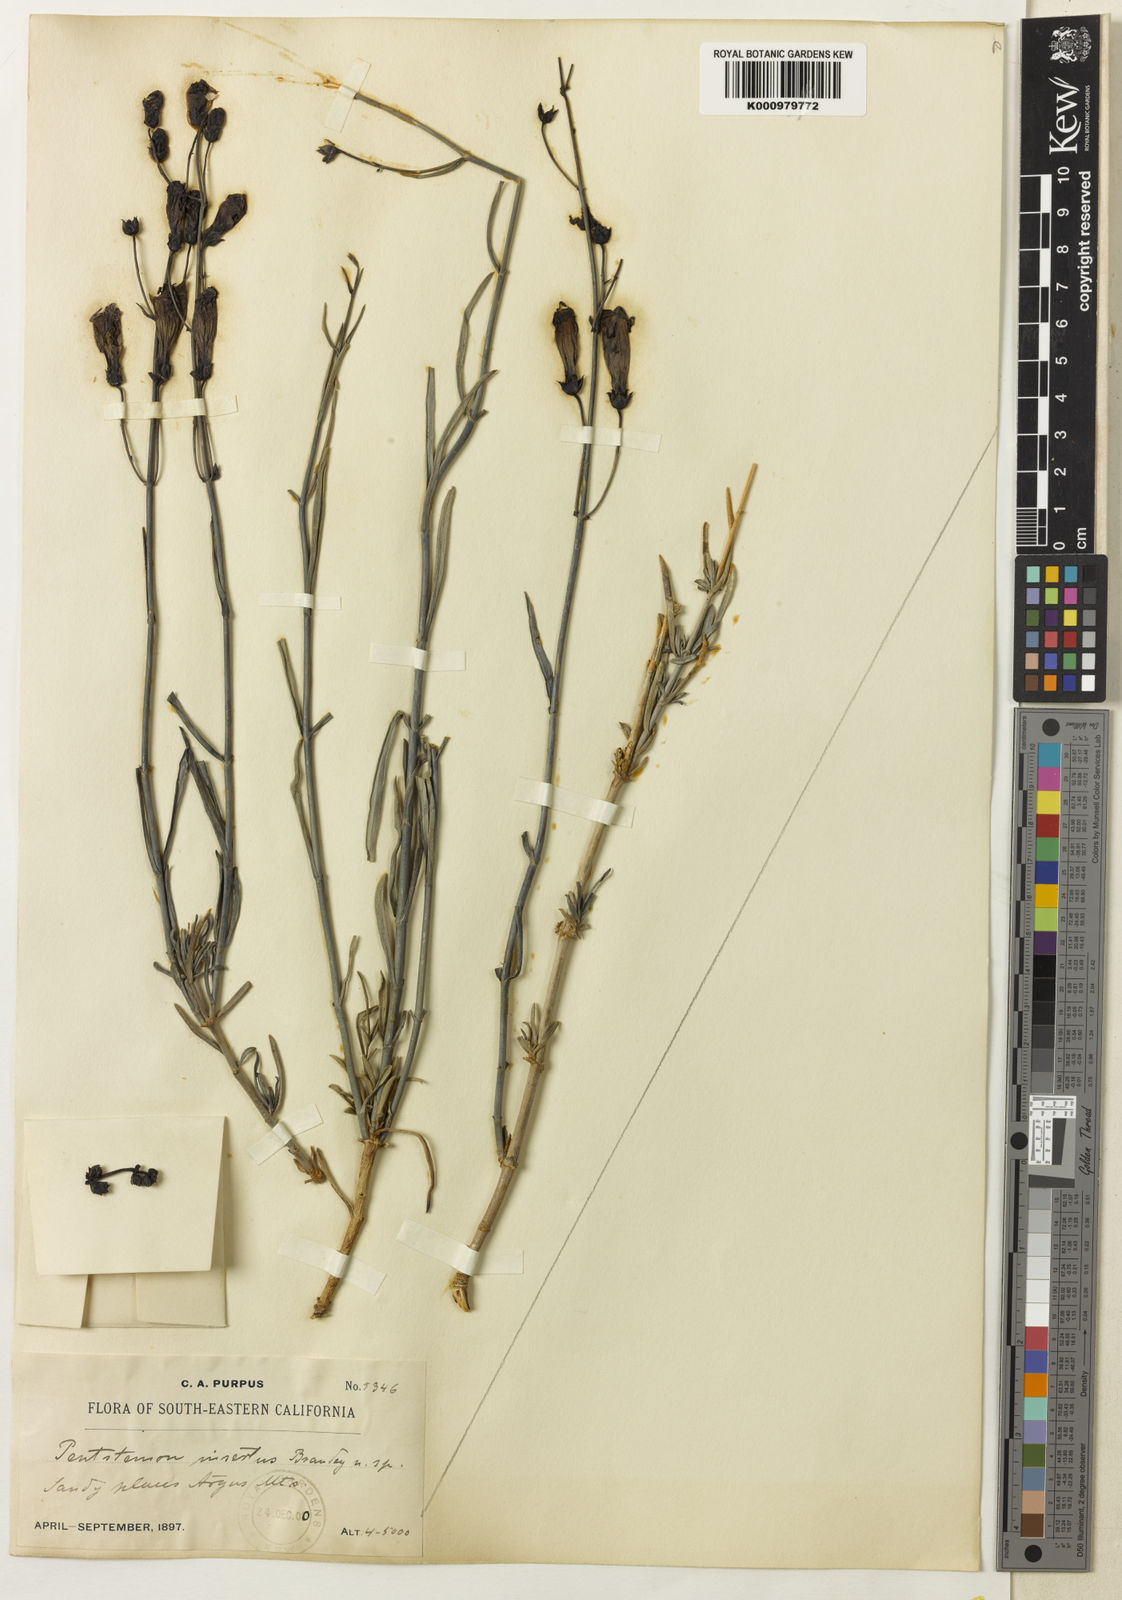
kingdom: Plantae
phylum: Tracheophyta
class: Magnoliopsida
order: Lamiales
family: Plantaginaceae
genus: Penstemon
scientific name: Penstemon incertus
